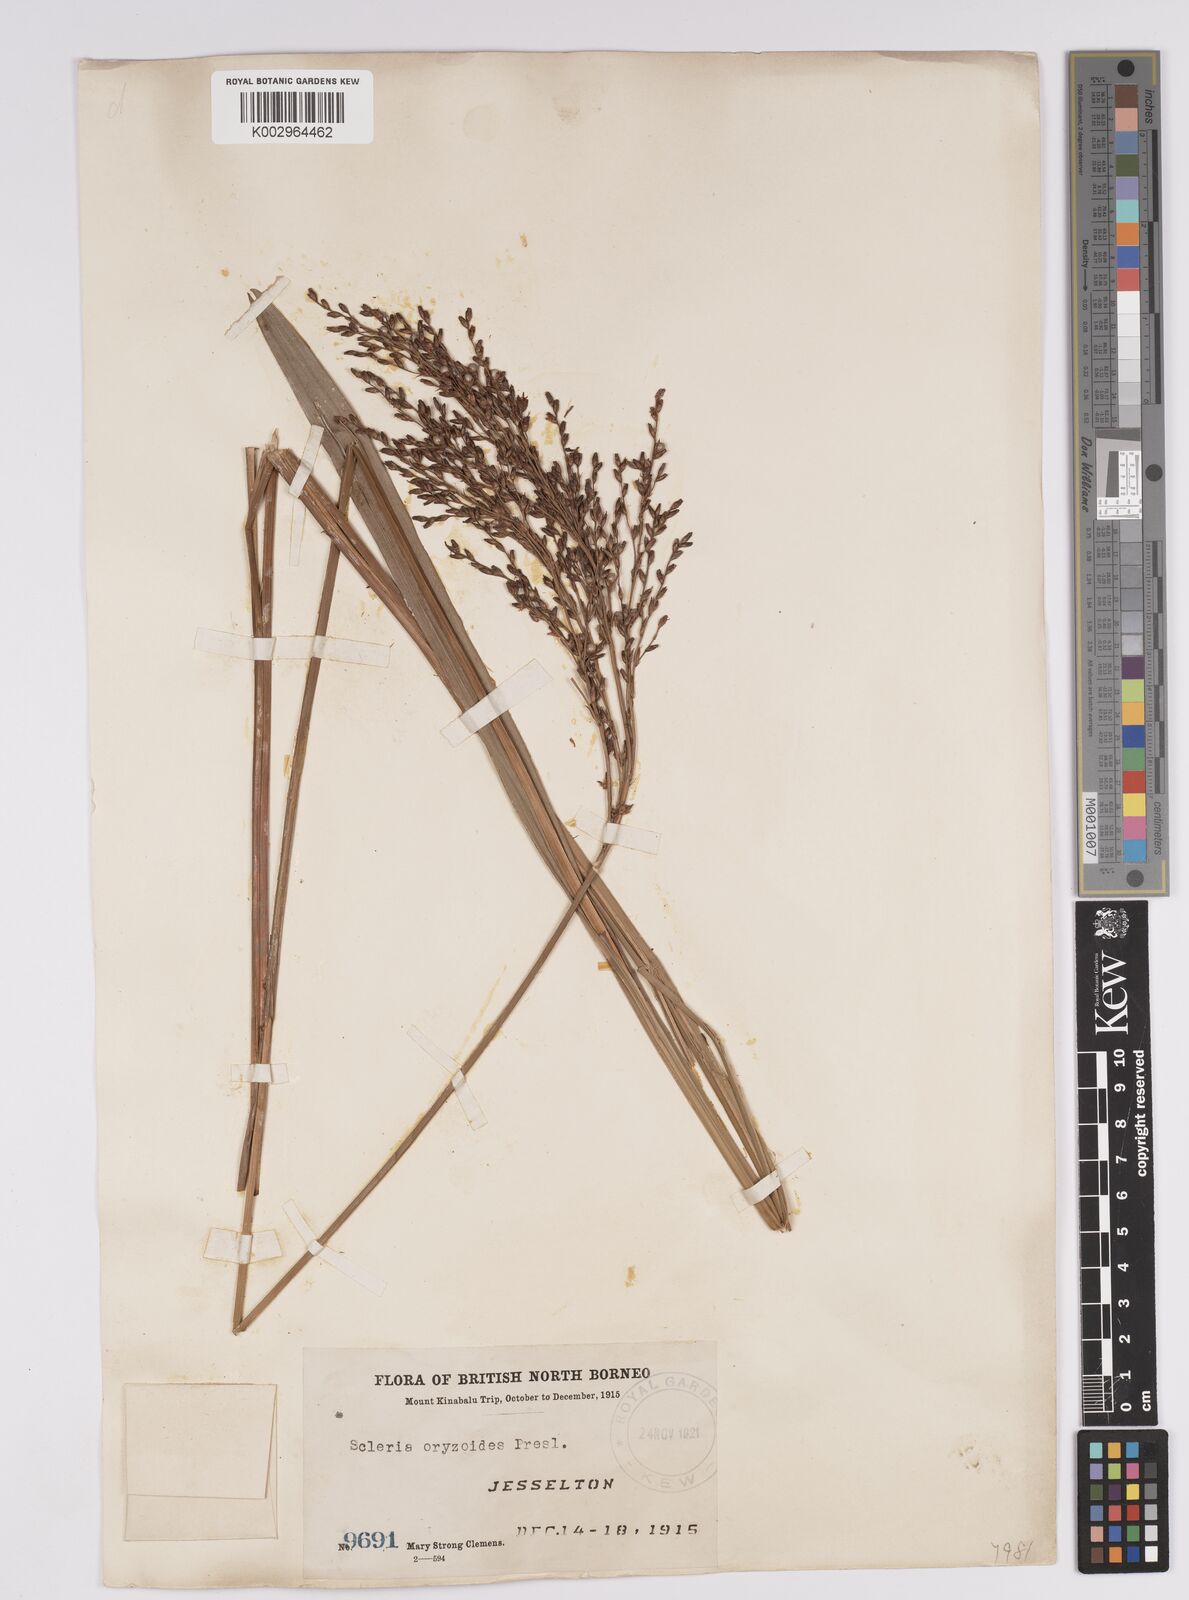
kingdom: Plantae
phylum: Tracheophyta
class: Liliopsida
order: Poales
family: Cyperaceae
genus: Scleria
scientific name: Scleria poiformis
